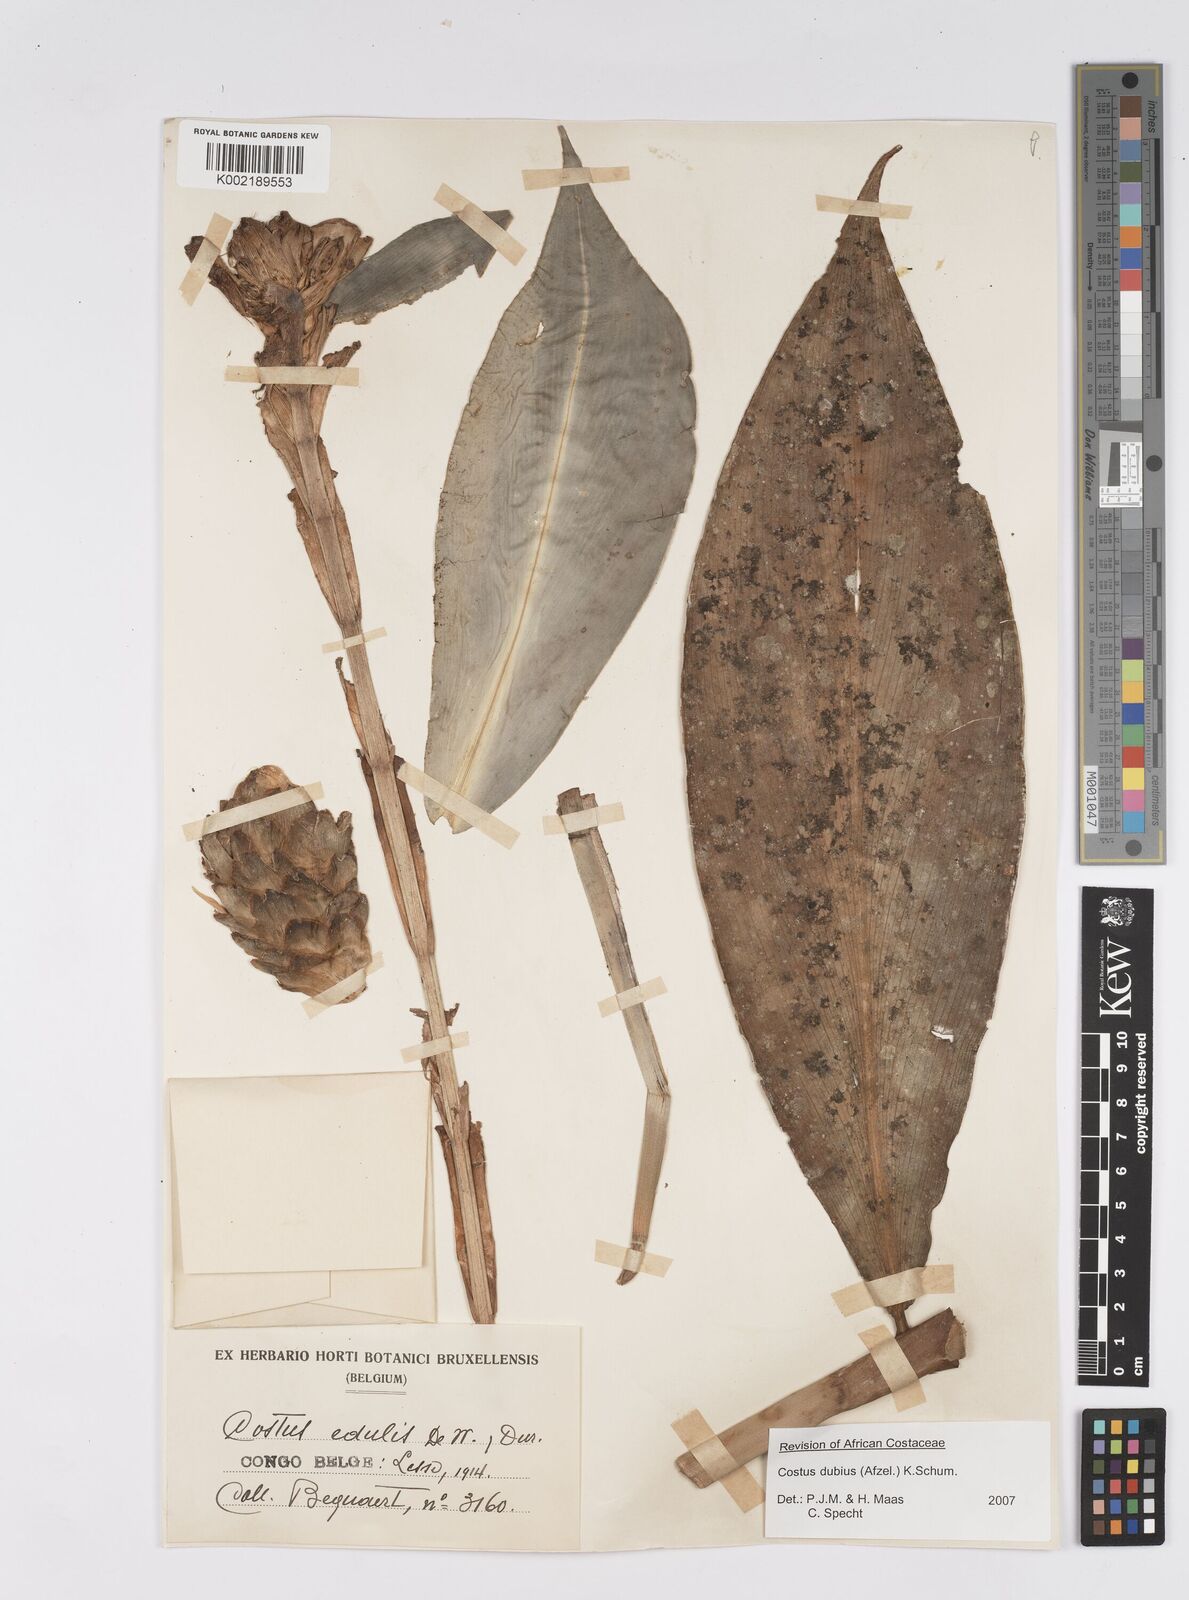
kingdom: Plantae
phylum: Tracheophyta
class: Liliopsida
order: Zingiberales
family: Costaceae
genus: Costus
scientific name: Costus dubius
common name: Costus
